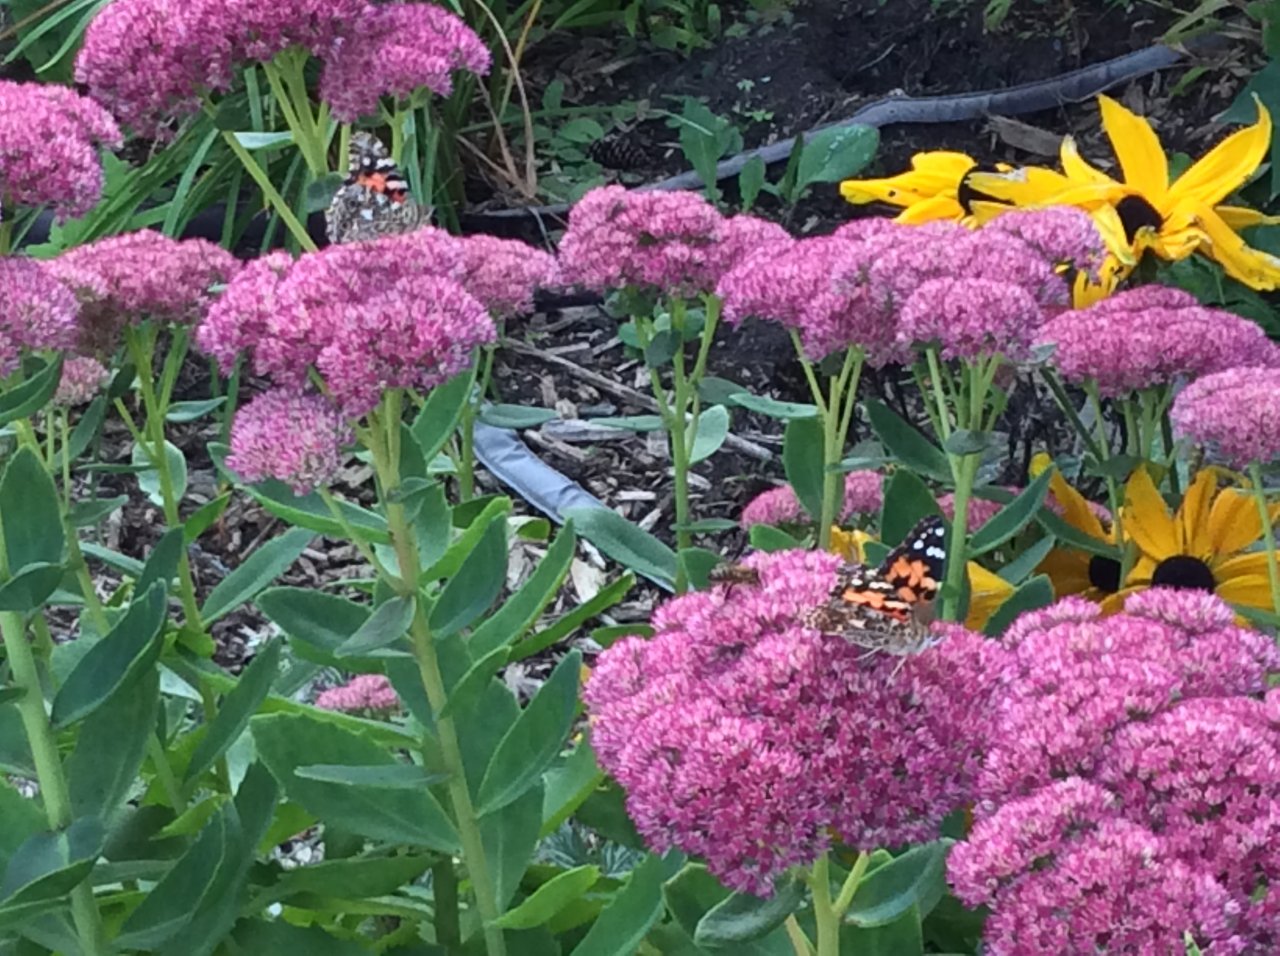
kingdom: Animalia
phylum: Arthropoda
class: Insecta
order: Lepidoptera
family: Nymphalidae
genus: Vanessa
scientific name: Vanessa cardui
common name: Painted Lady
